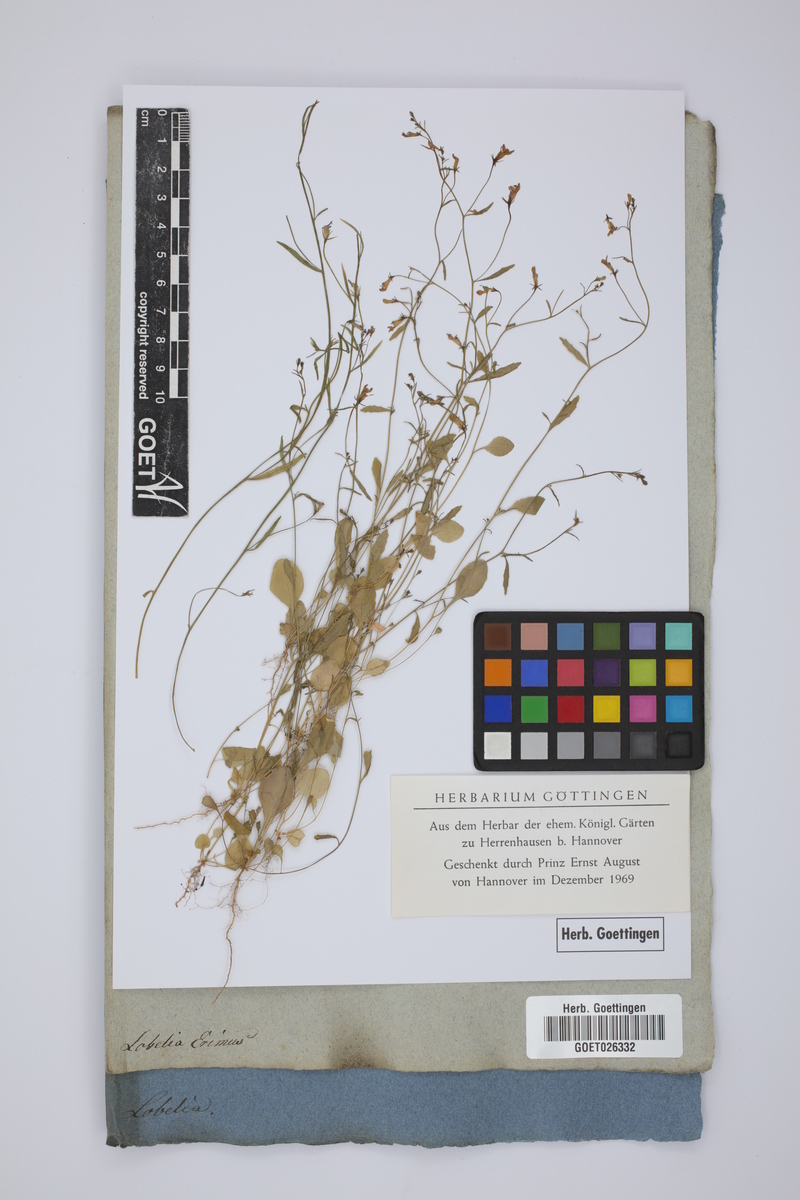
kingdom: Plantae
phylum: Tracheophyta
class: Magnoliopsida
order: Asterales
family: Campanulaceae
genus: Lobelia
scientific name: Lobelia erinus
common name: Edging lobelia
